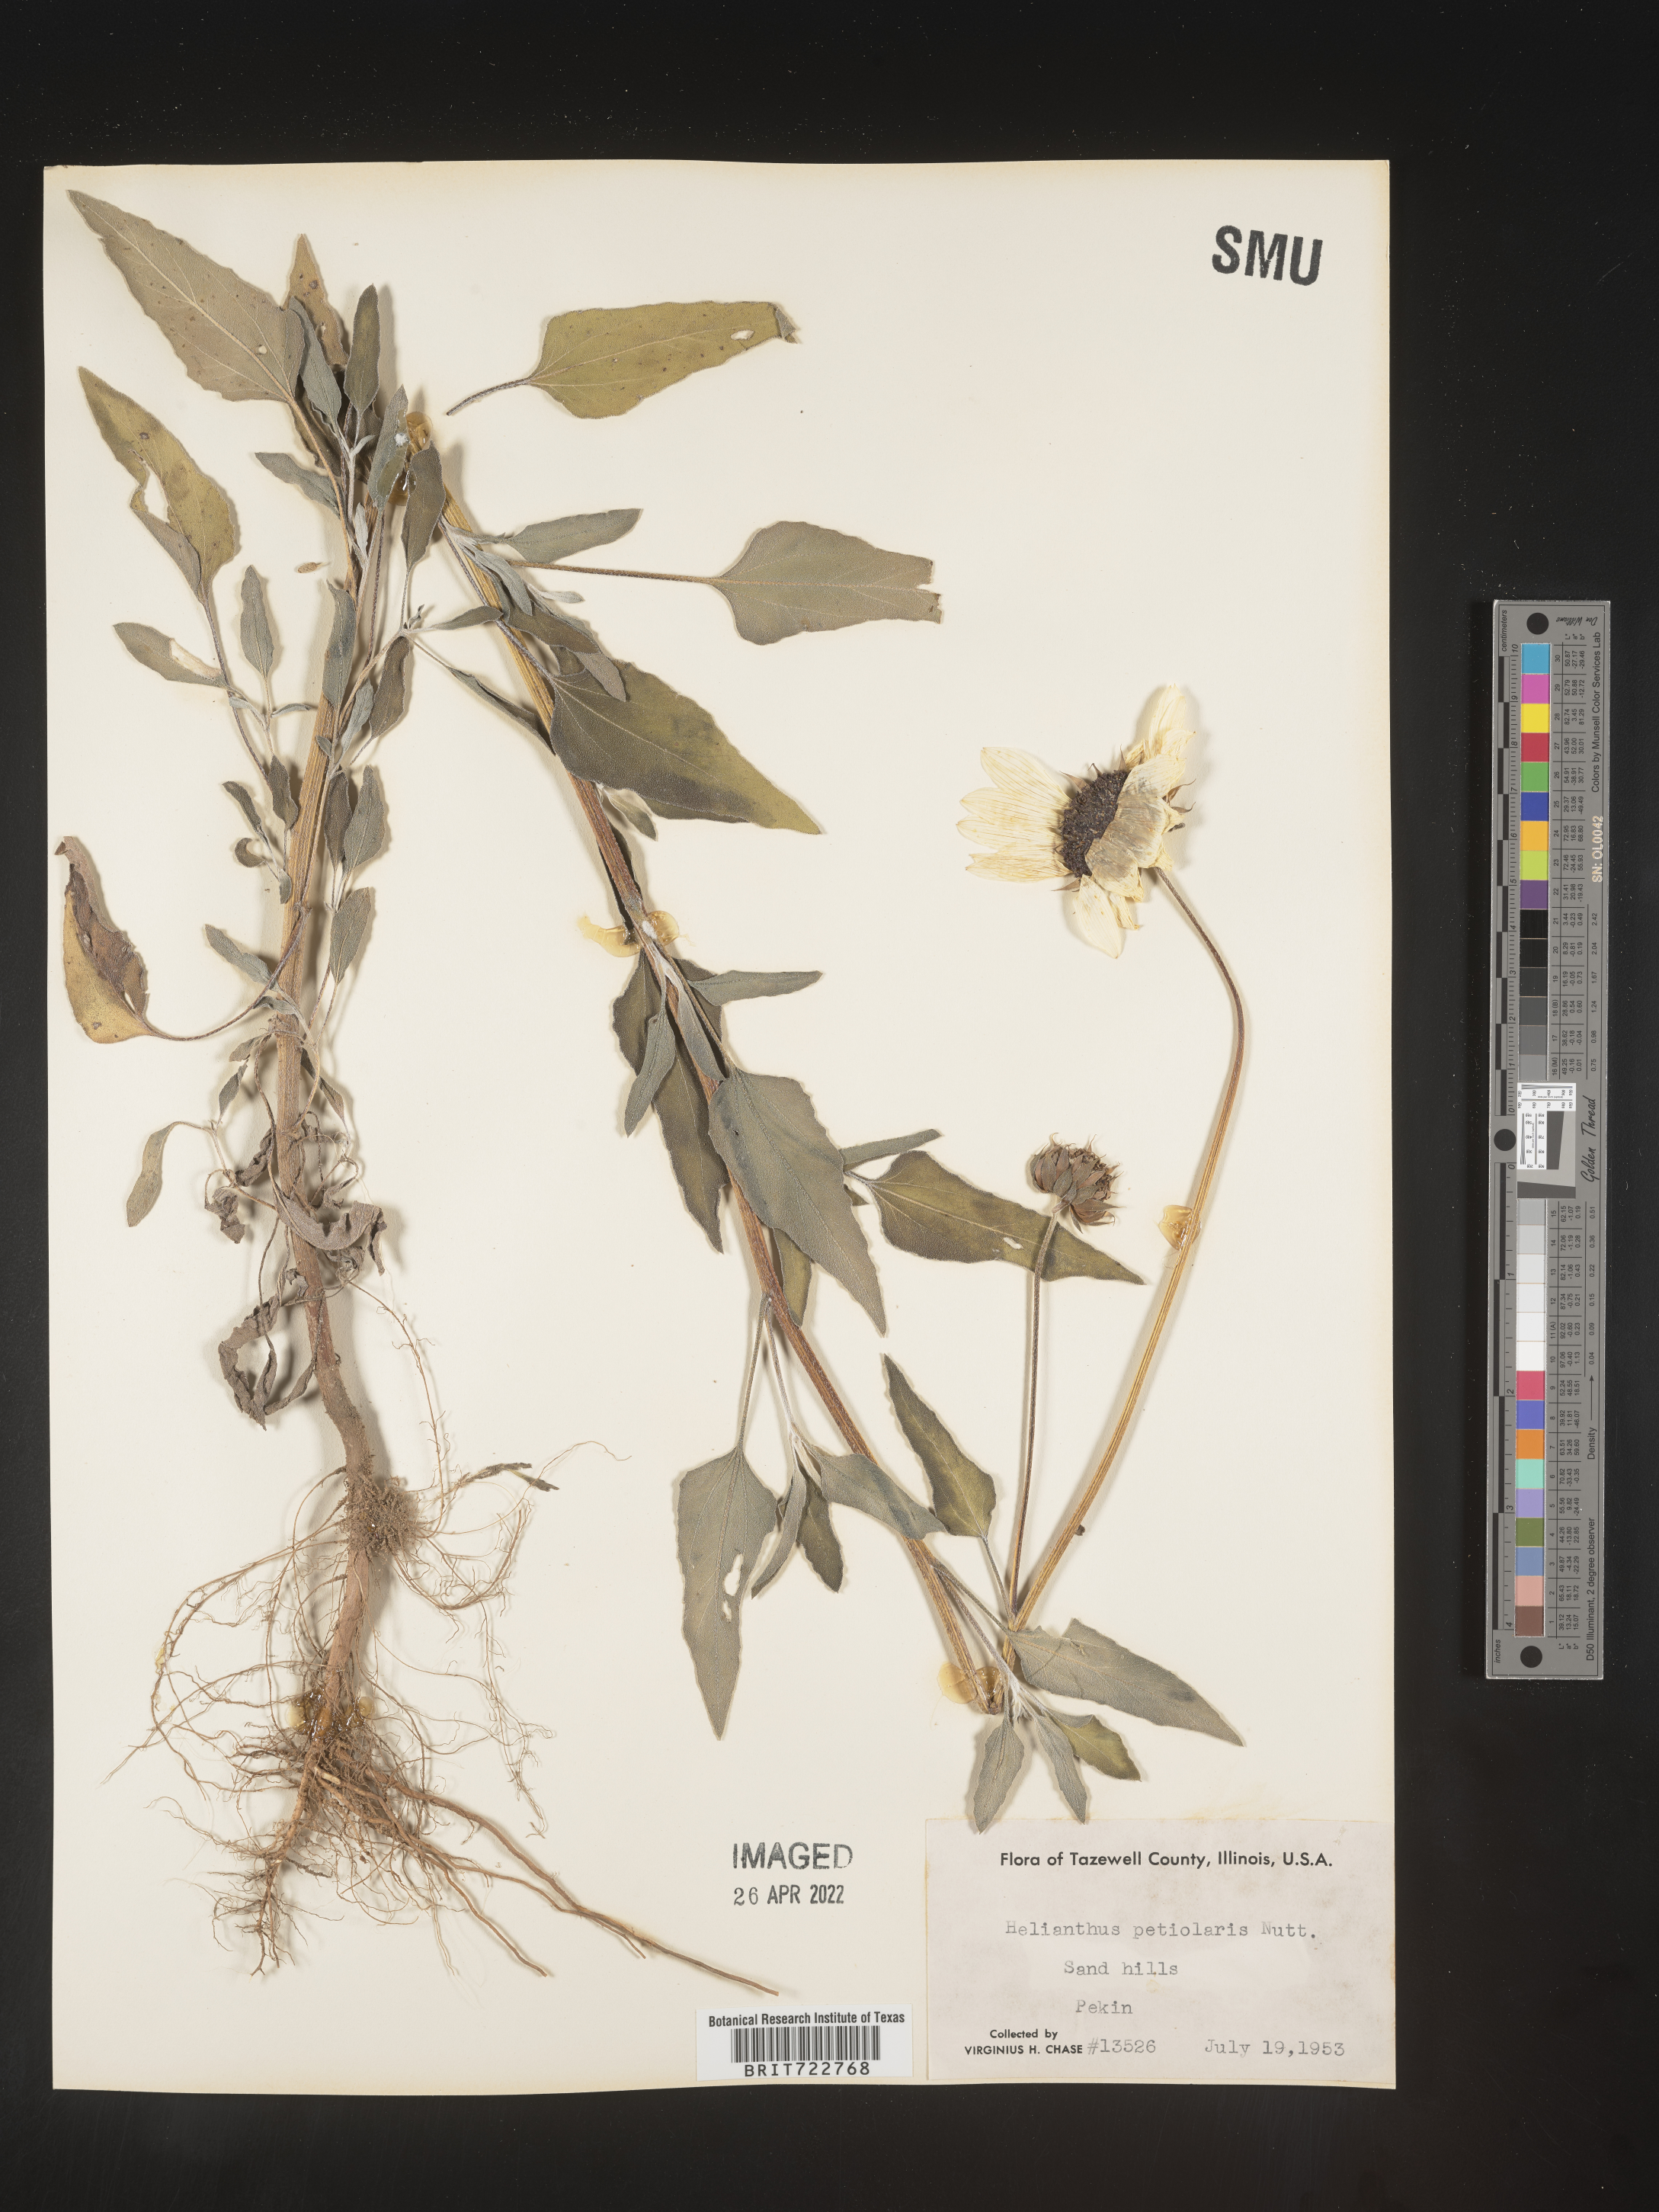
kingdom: Plantae
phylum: Tracheophyta
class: Magnoliopsida
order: Asterales
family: Asteraceae
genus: Helianthus
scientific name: Helianthus petiolaris
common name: Lesser sunflower
